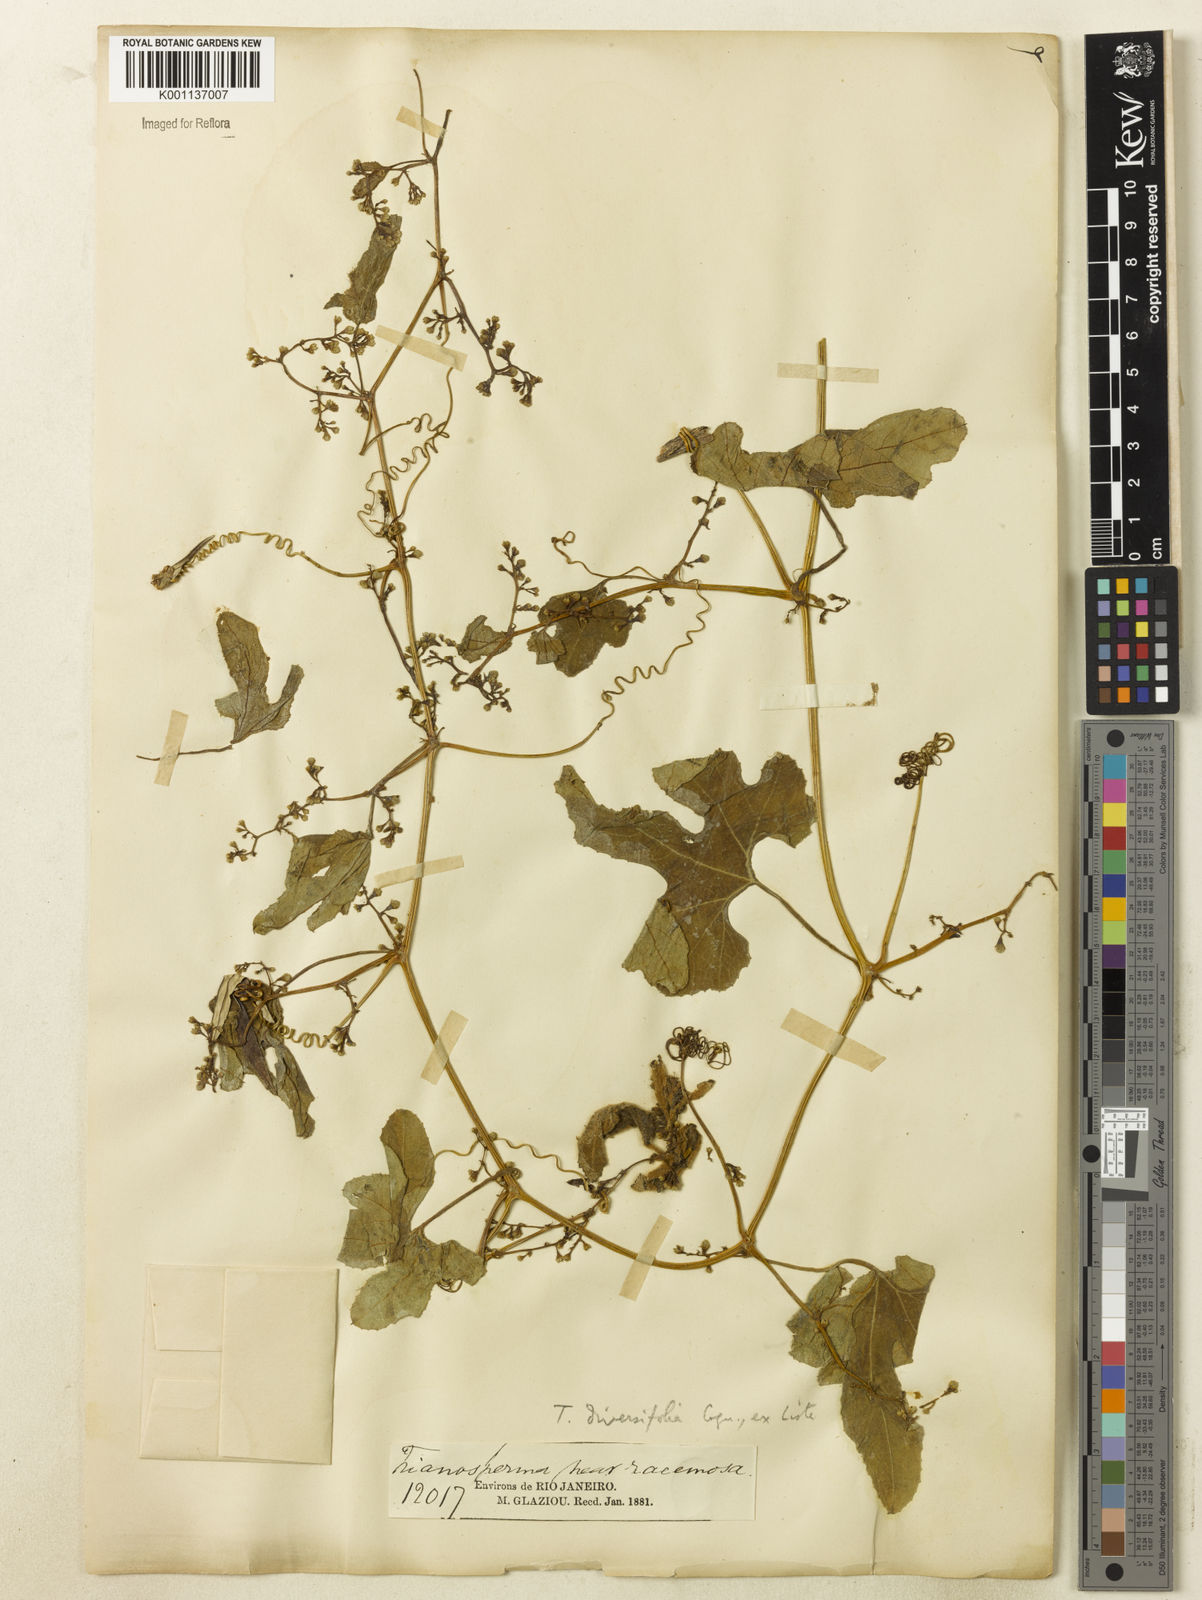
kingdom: Plantae
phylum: Tracheophyta
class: Magnoliopsida
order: Cucurbitales
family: Cucurbitaceae
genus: Cayaponia
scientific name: Cayaponia diversifolia
